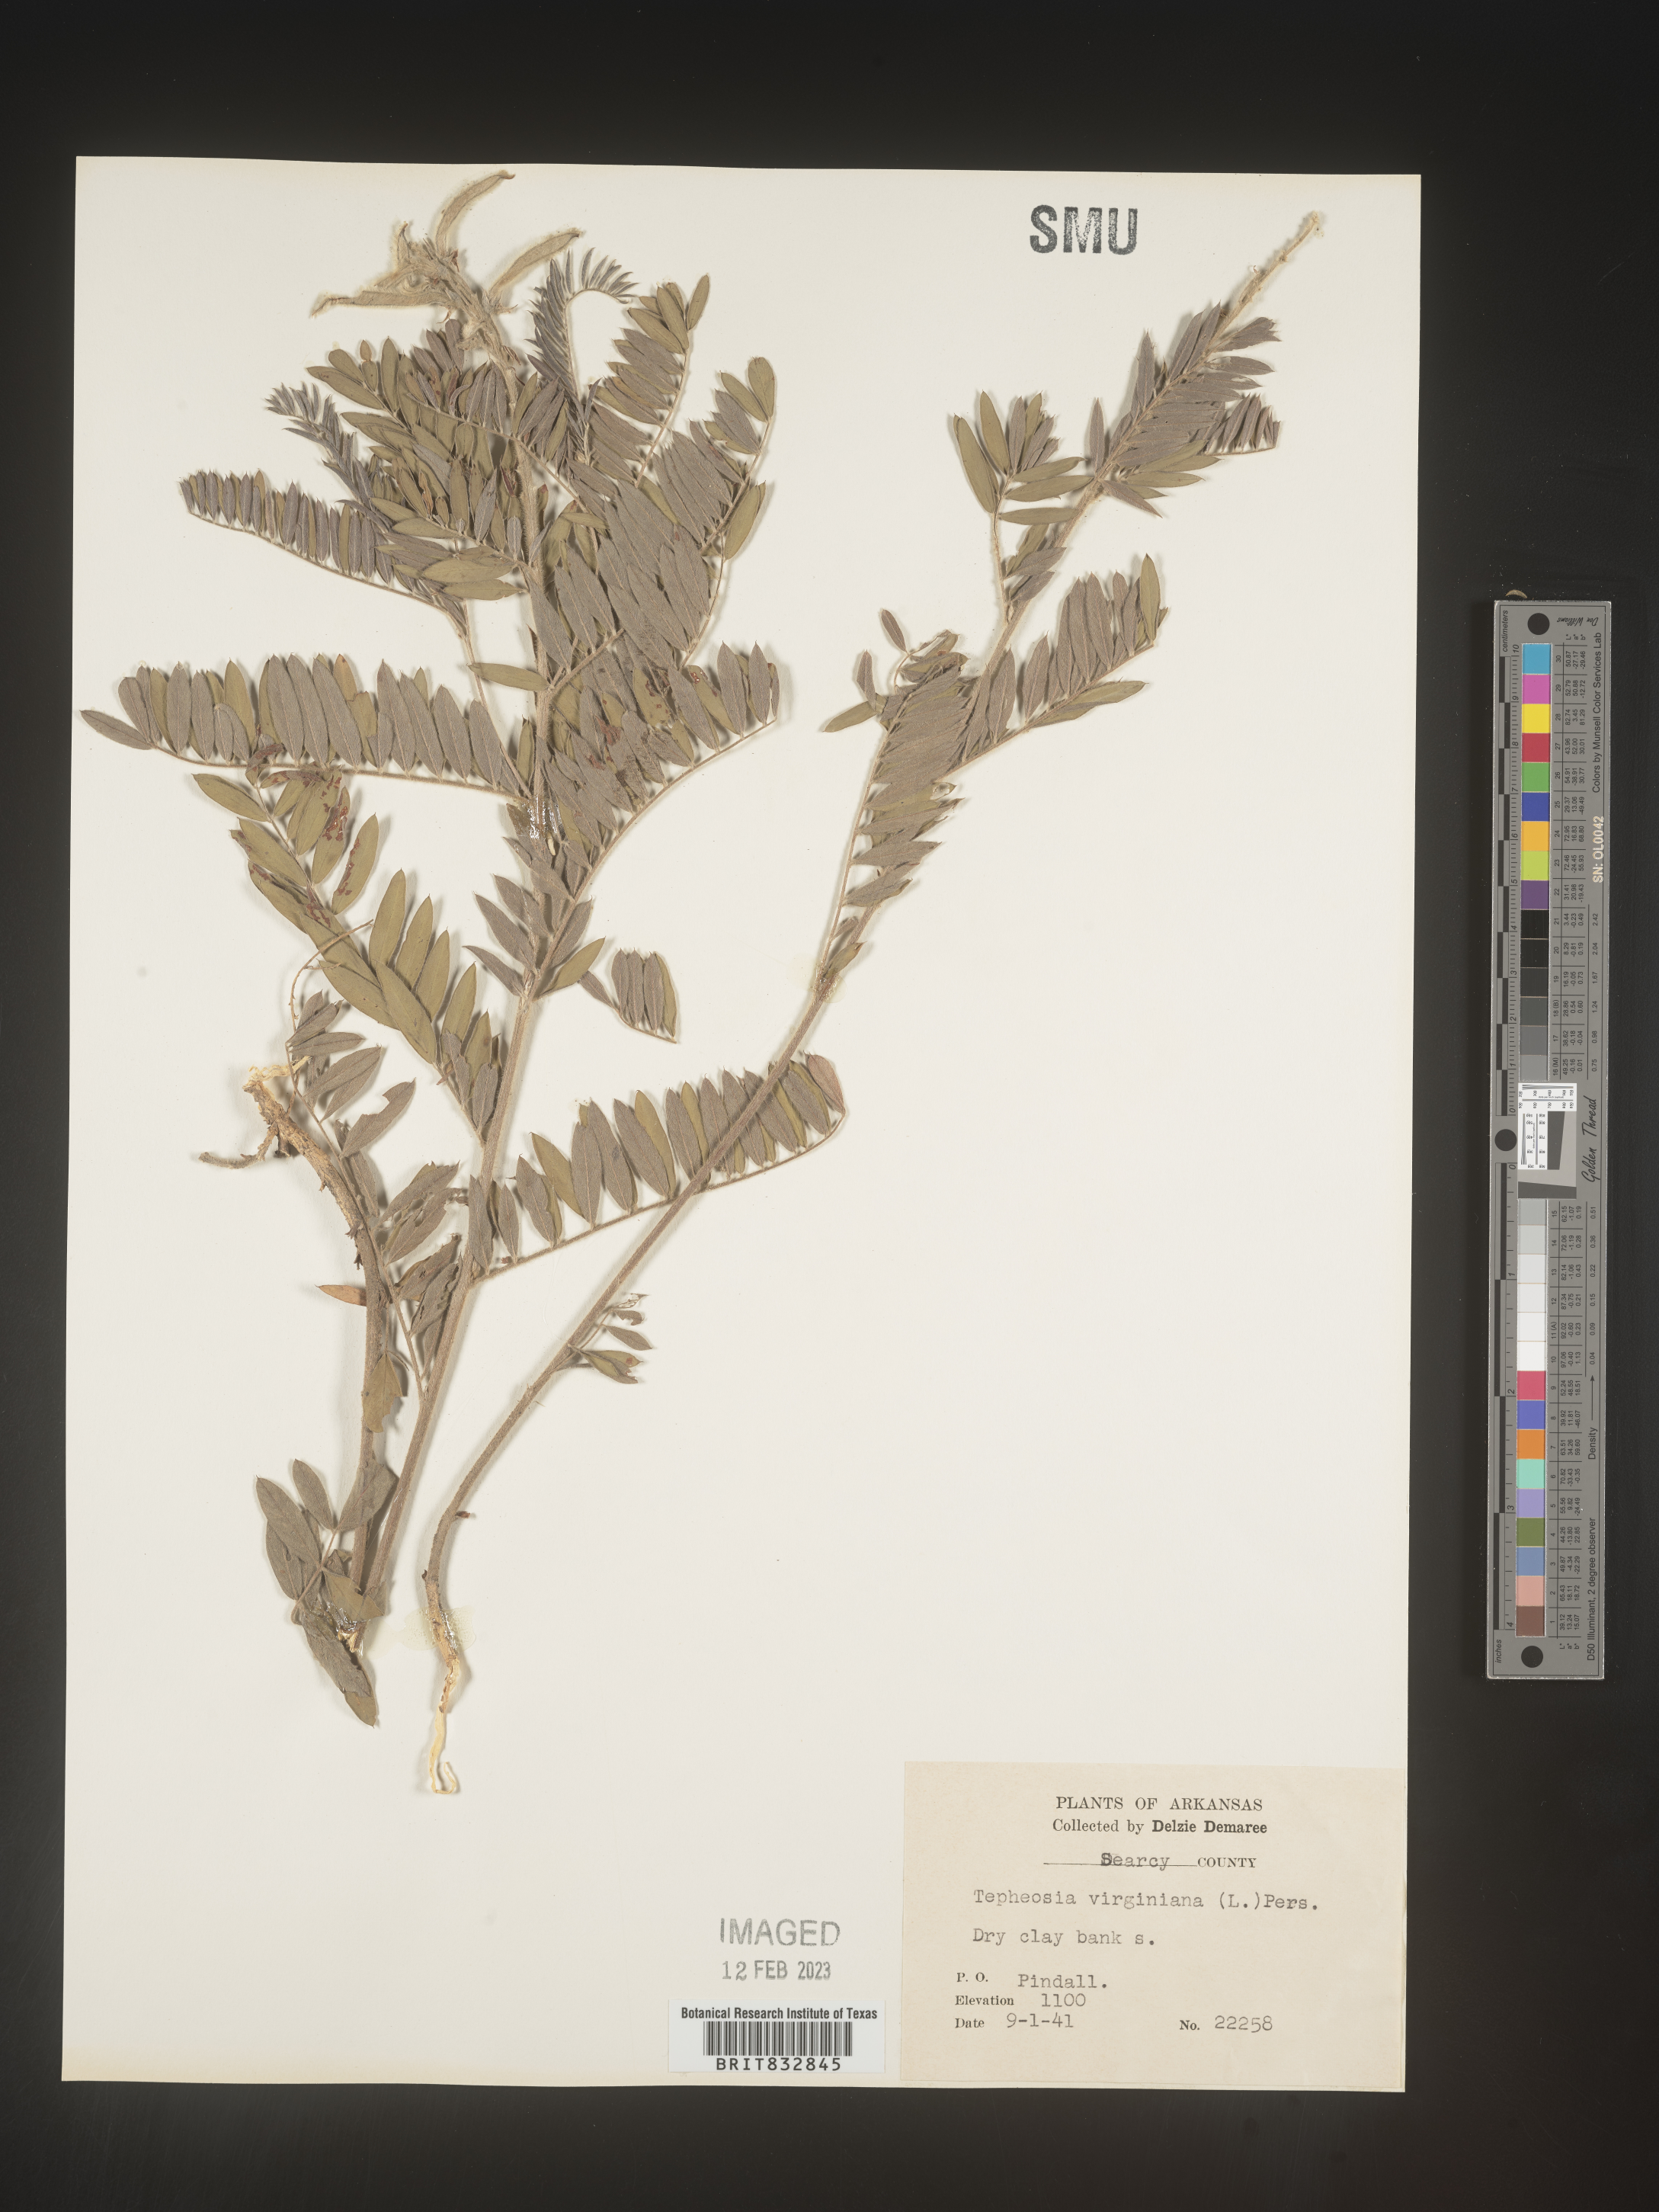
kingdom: Plantae
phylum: Tracheophyta
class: Magnoliopsida
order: Fabales
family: Fabaceae
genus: Tephrosia
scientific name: Tephrosia virginiana
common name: Rabbit-pea
